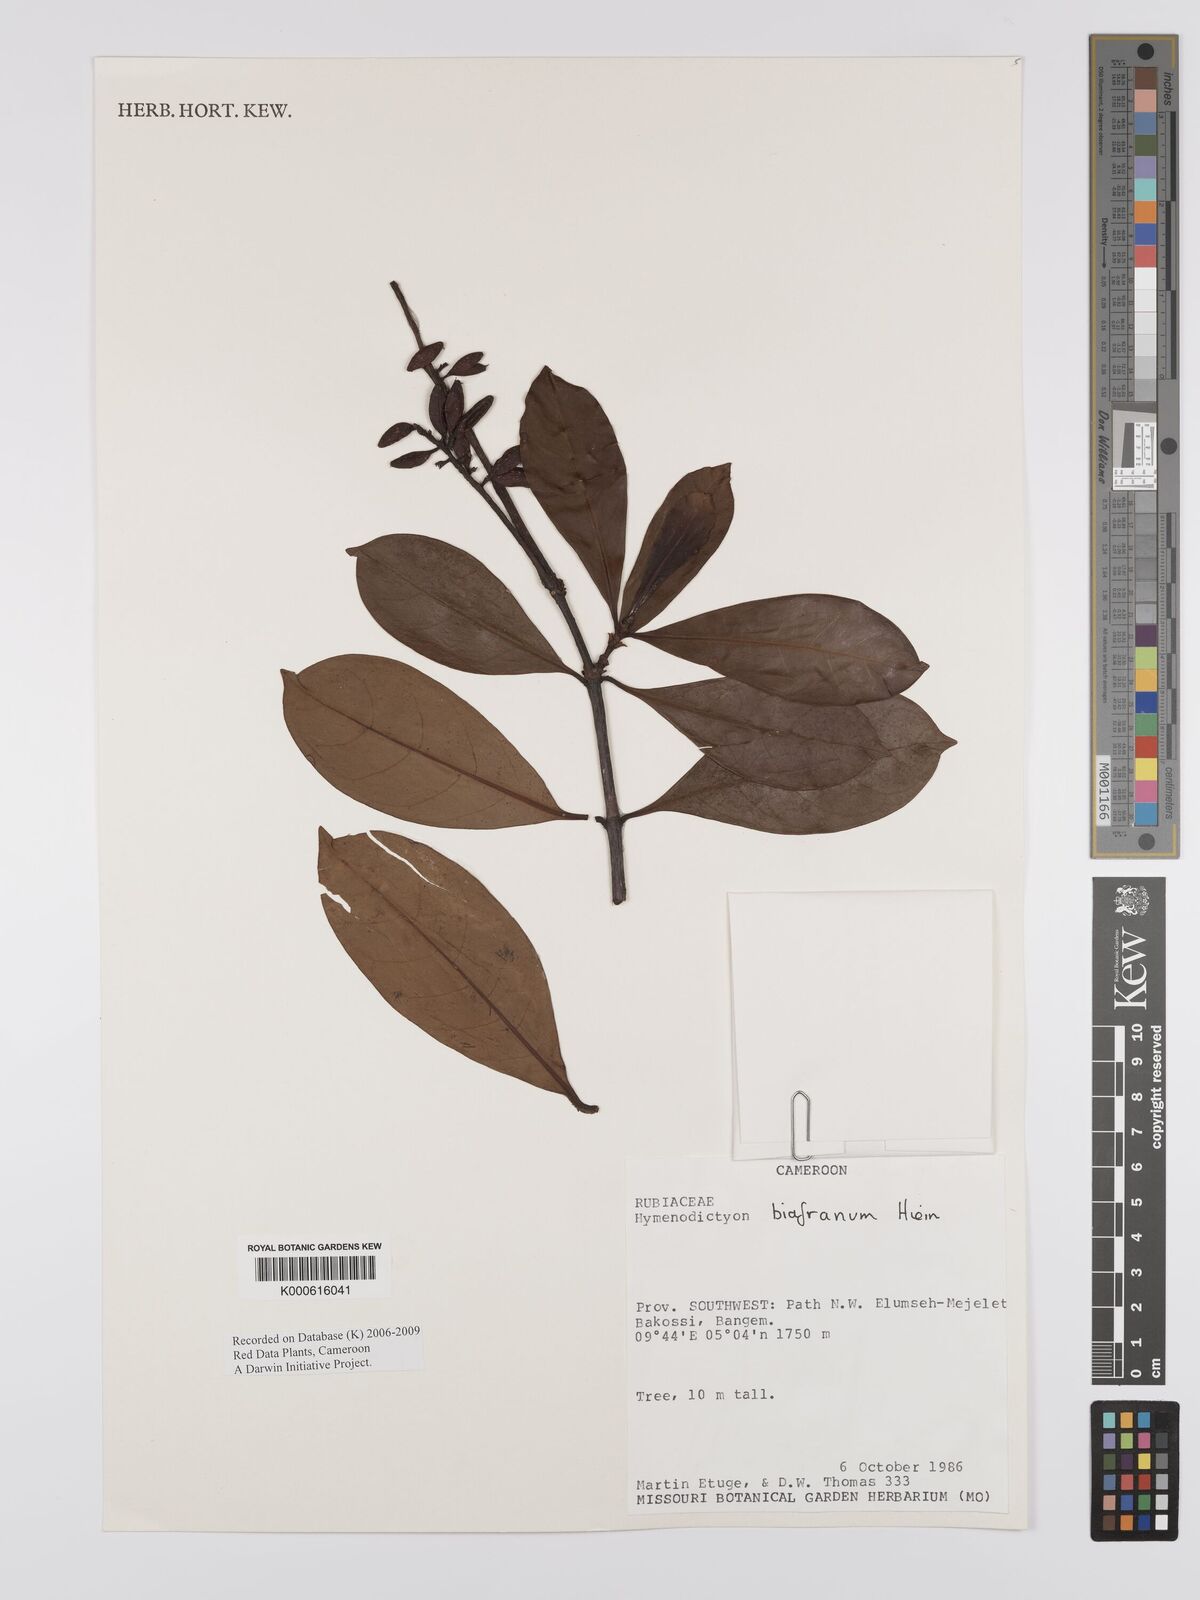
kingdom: Plantae
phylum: Tracheophyta
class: Magnoliopsida
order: Gentianales
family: Rubiaceae
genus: Hymenodictyon
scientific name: Hymenodictyon biafranum
